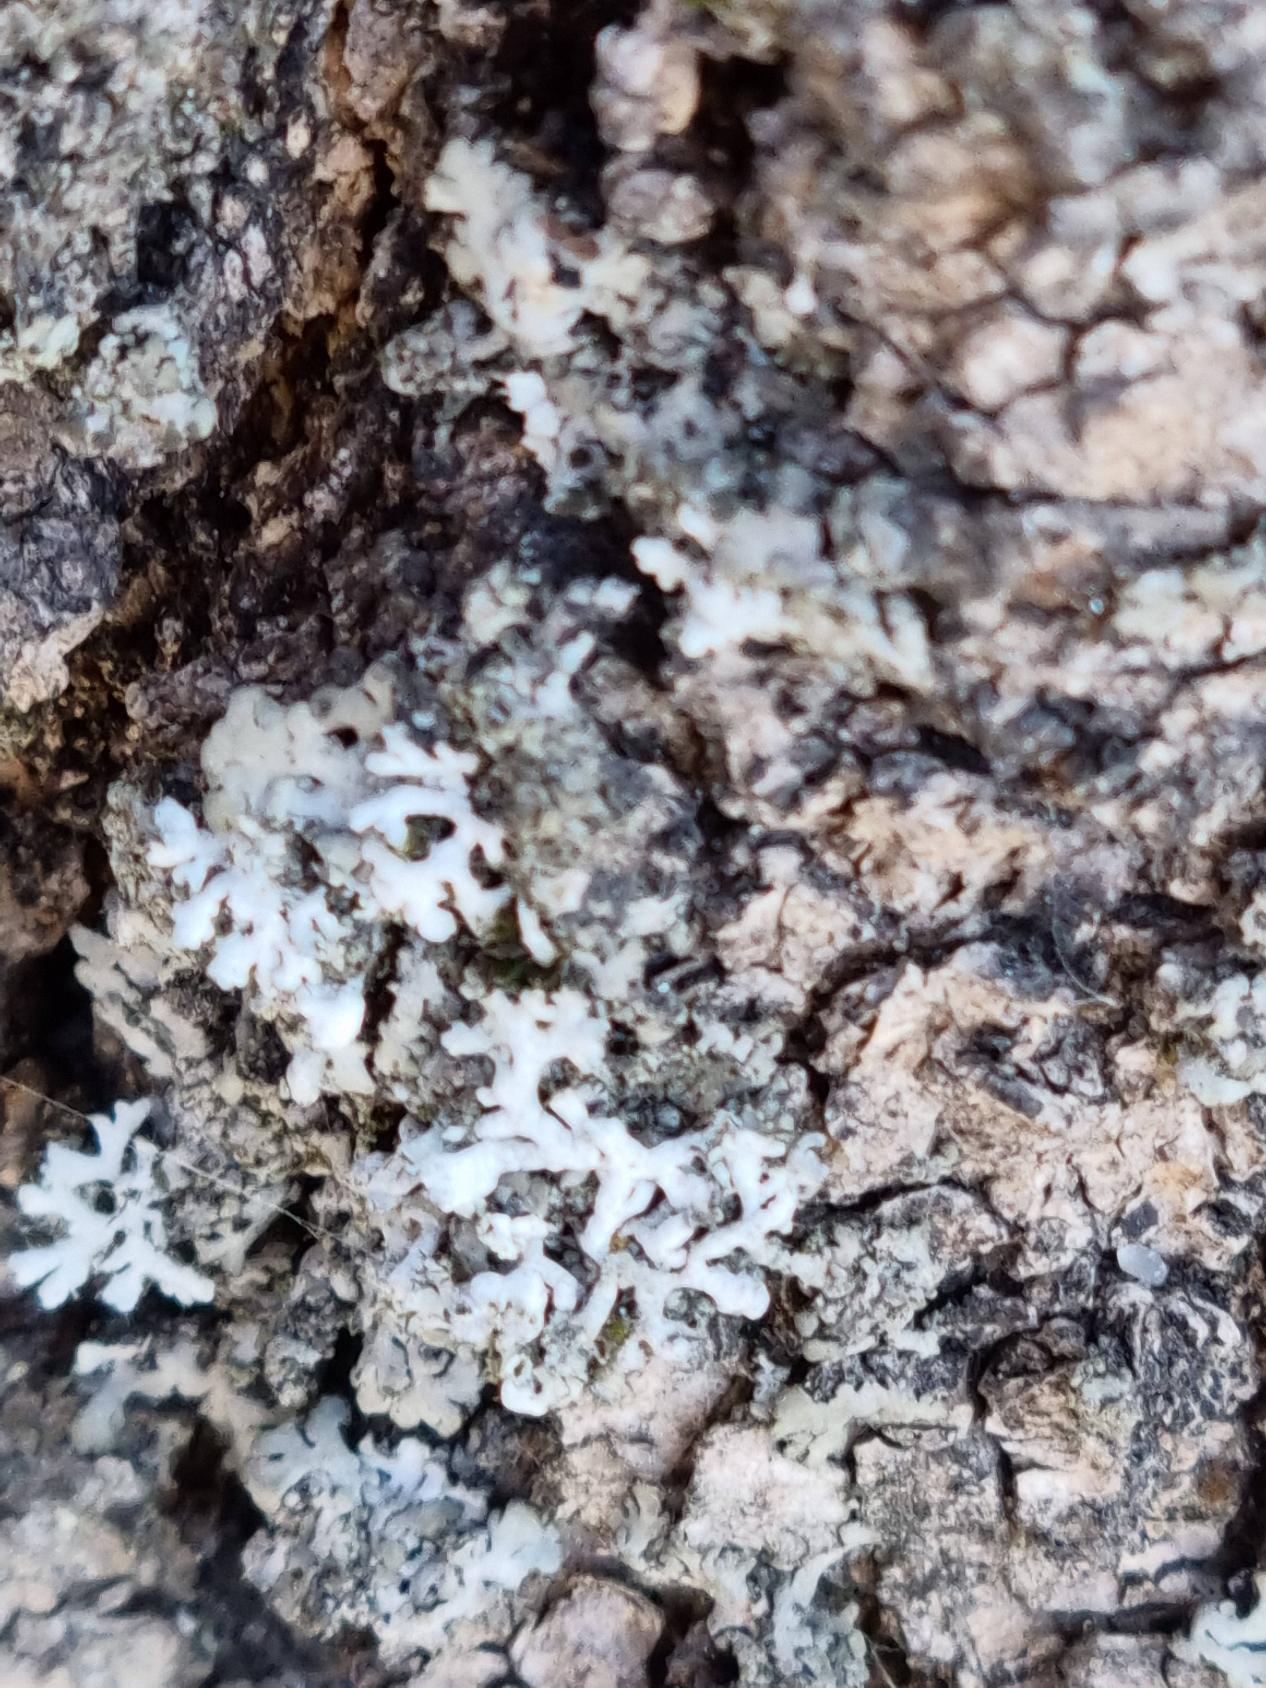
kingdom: Fungi
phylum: Ascomycota
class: Lecanoromycetes
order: Caliciales
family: Physciaceae
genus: Physcia
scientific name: Physcia tenella
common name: Spæd rosetlav
